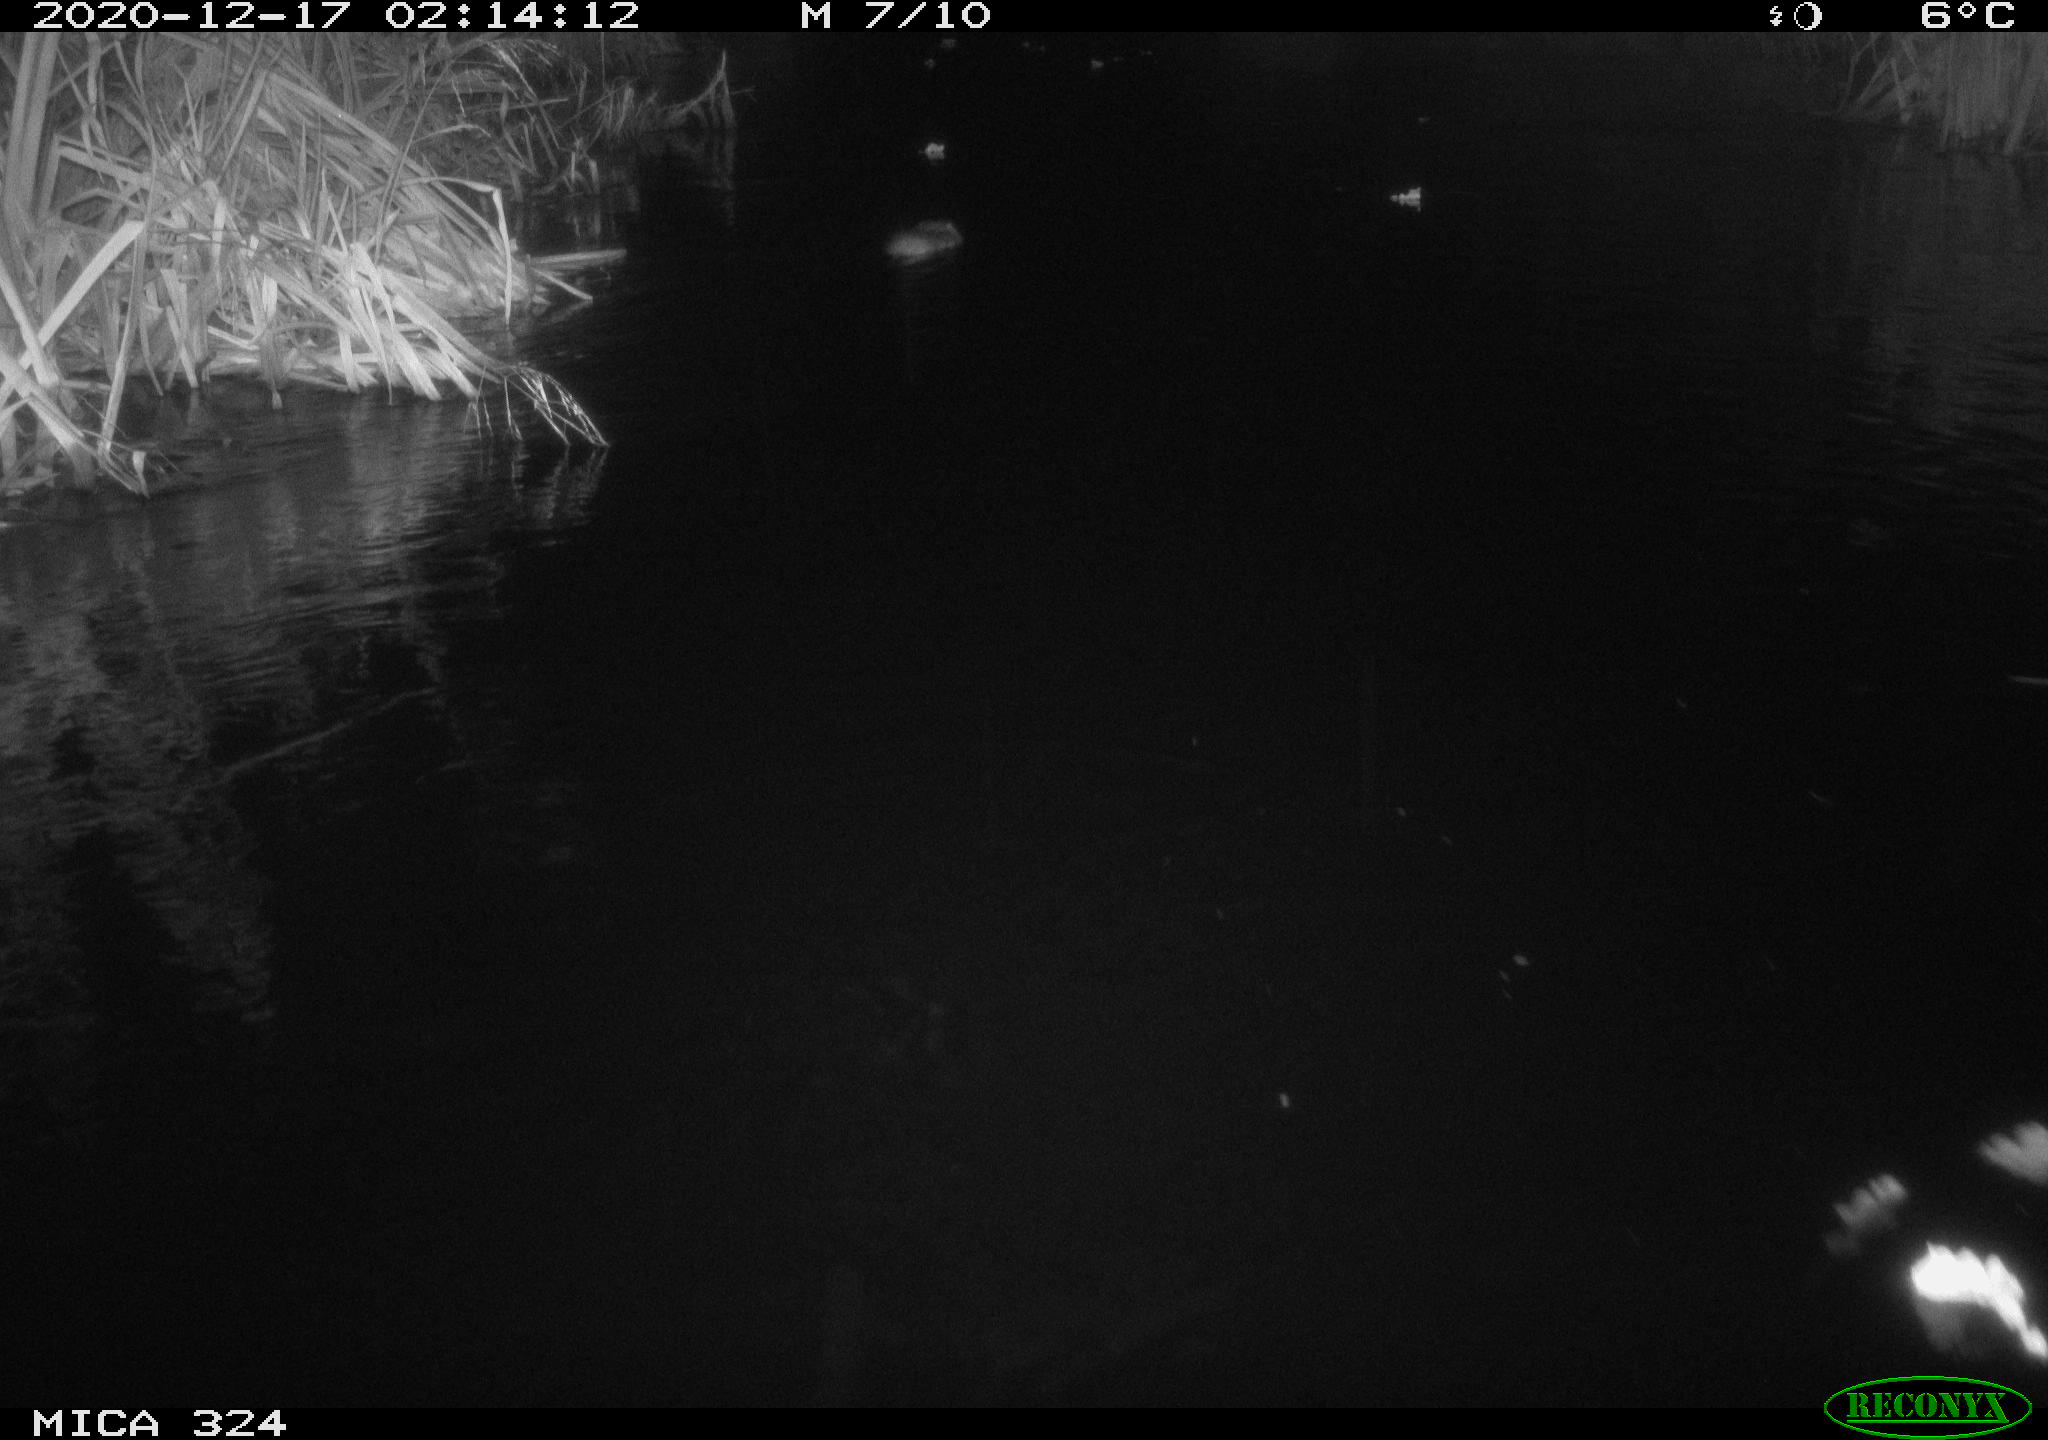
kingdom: Animalia
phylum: Chordata
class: Mammalia
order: Rodentia
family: Cricetidae
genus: Ondatra
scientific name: Ondatra zibethicus
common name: Muskrat
